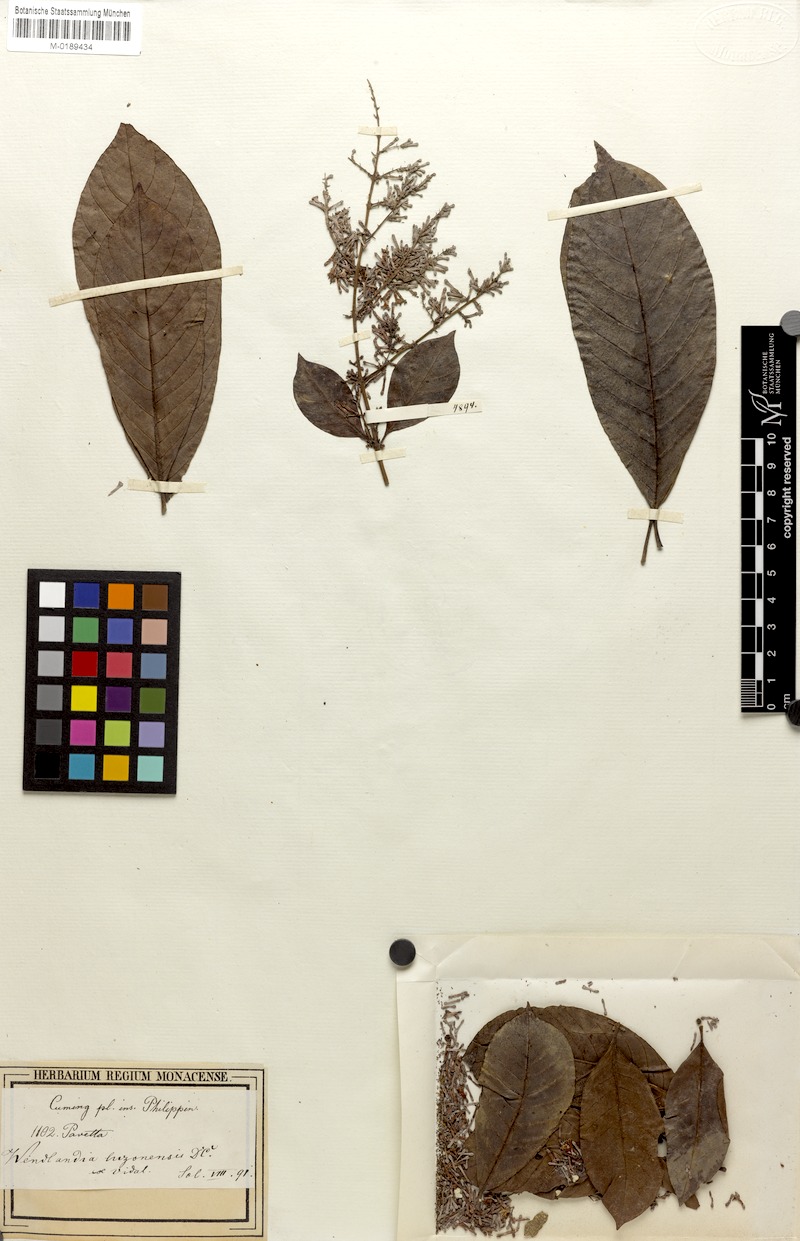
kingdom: Plantae
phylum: Tracheophyta
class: Magnoliopsida
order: Gentianales
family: Rubiaceae
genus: Wendlandia
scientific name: Wendlandia luzoniensis
